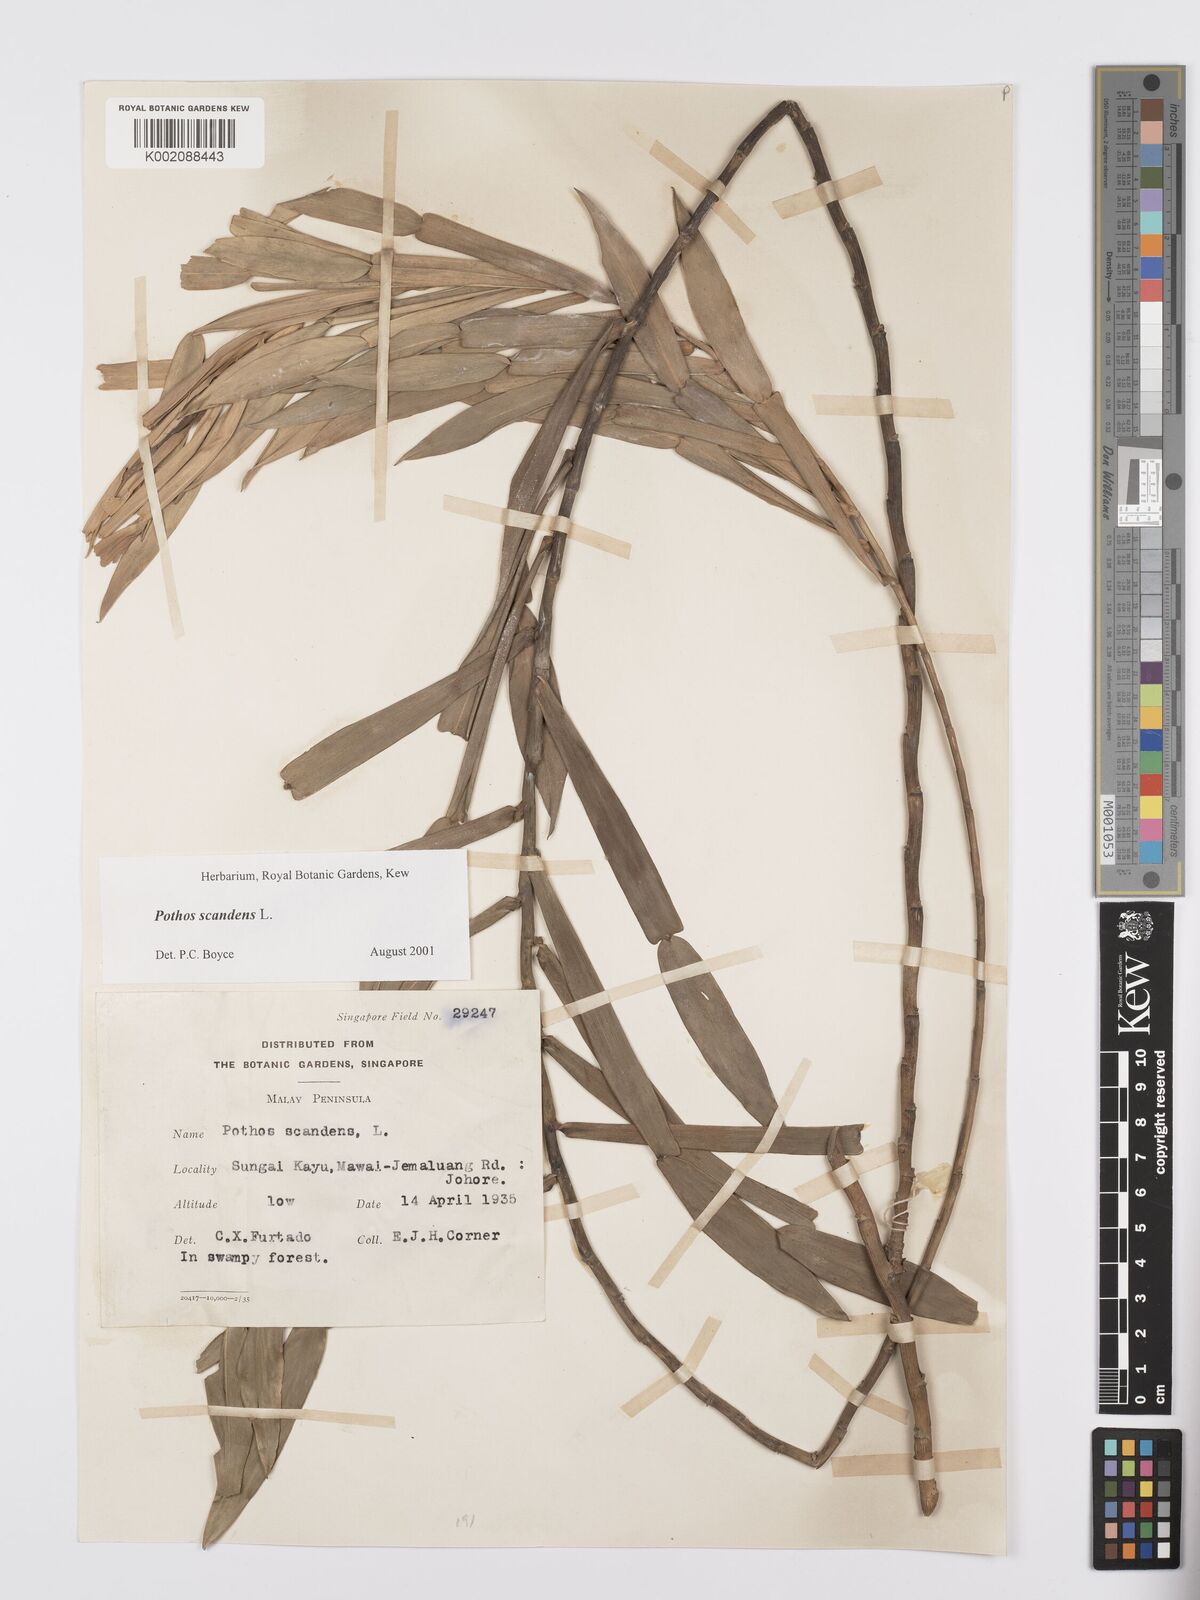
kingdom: Plantae
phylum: Tracheophyta
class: Liliopsida
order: Alismatales
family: Araceae
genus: Pothos
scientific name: Pothos scandens
